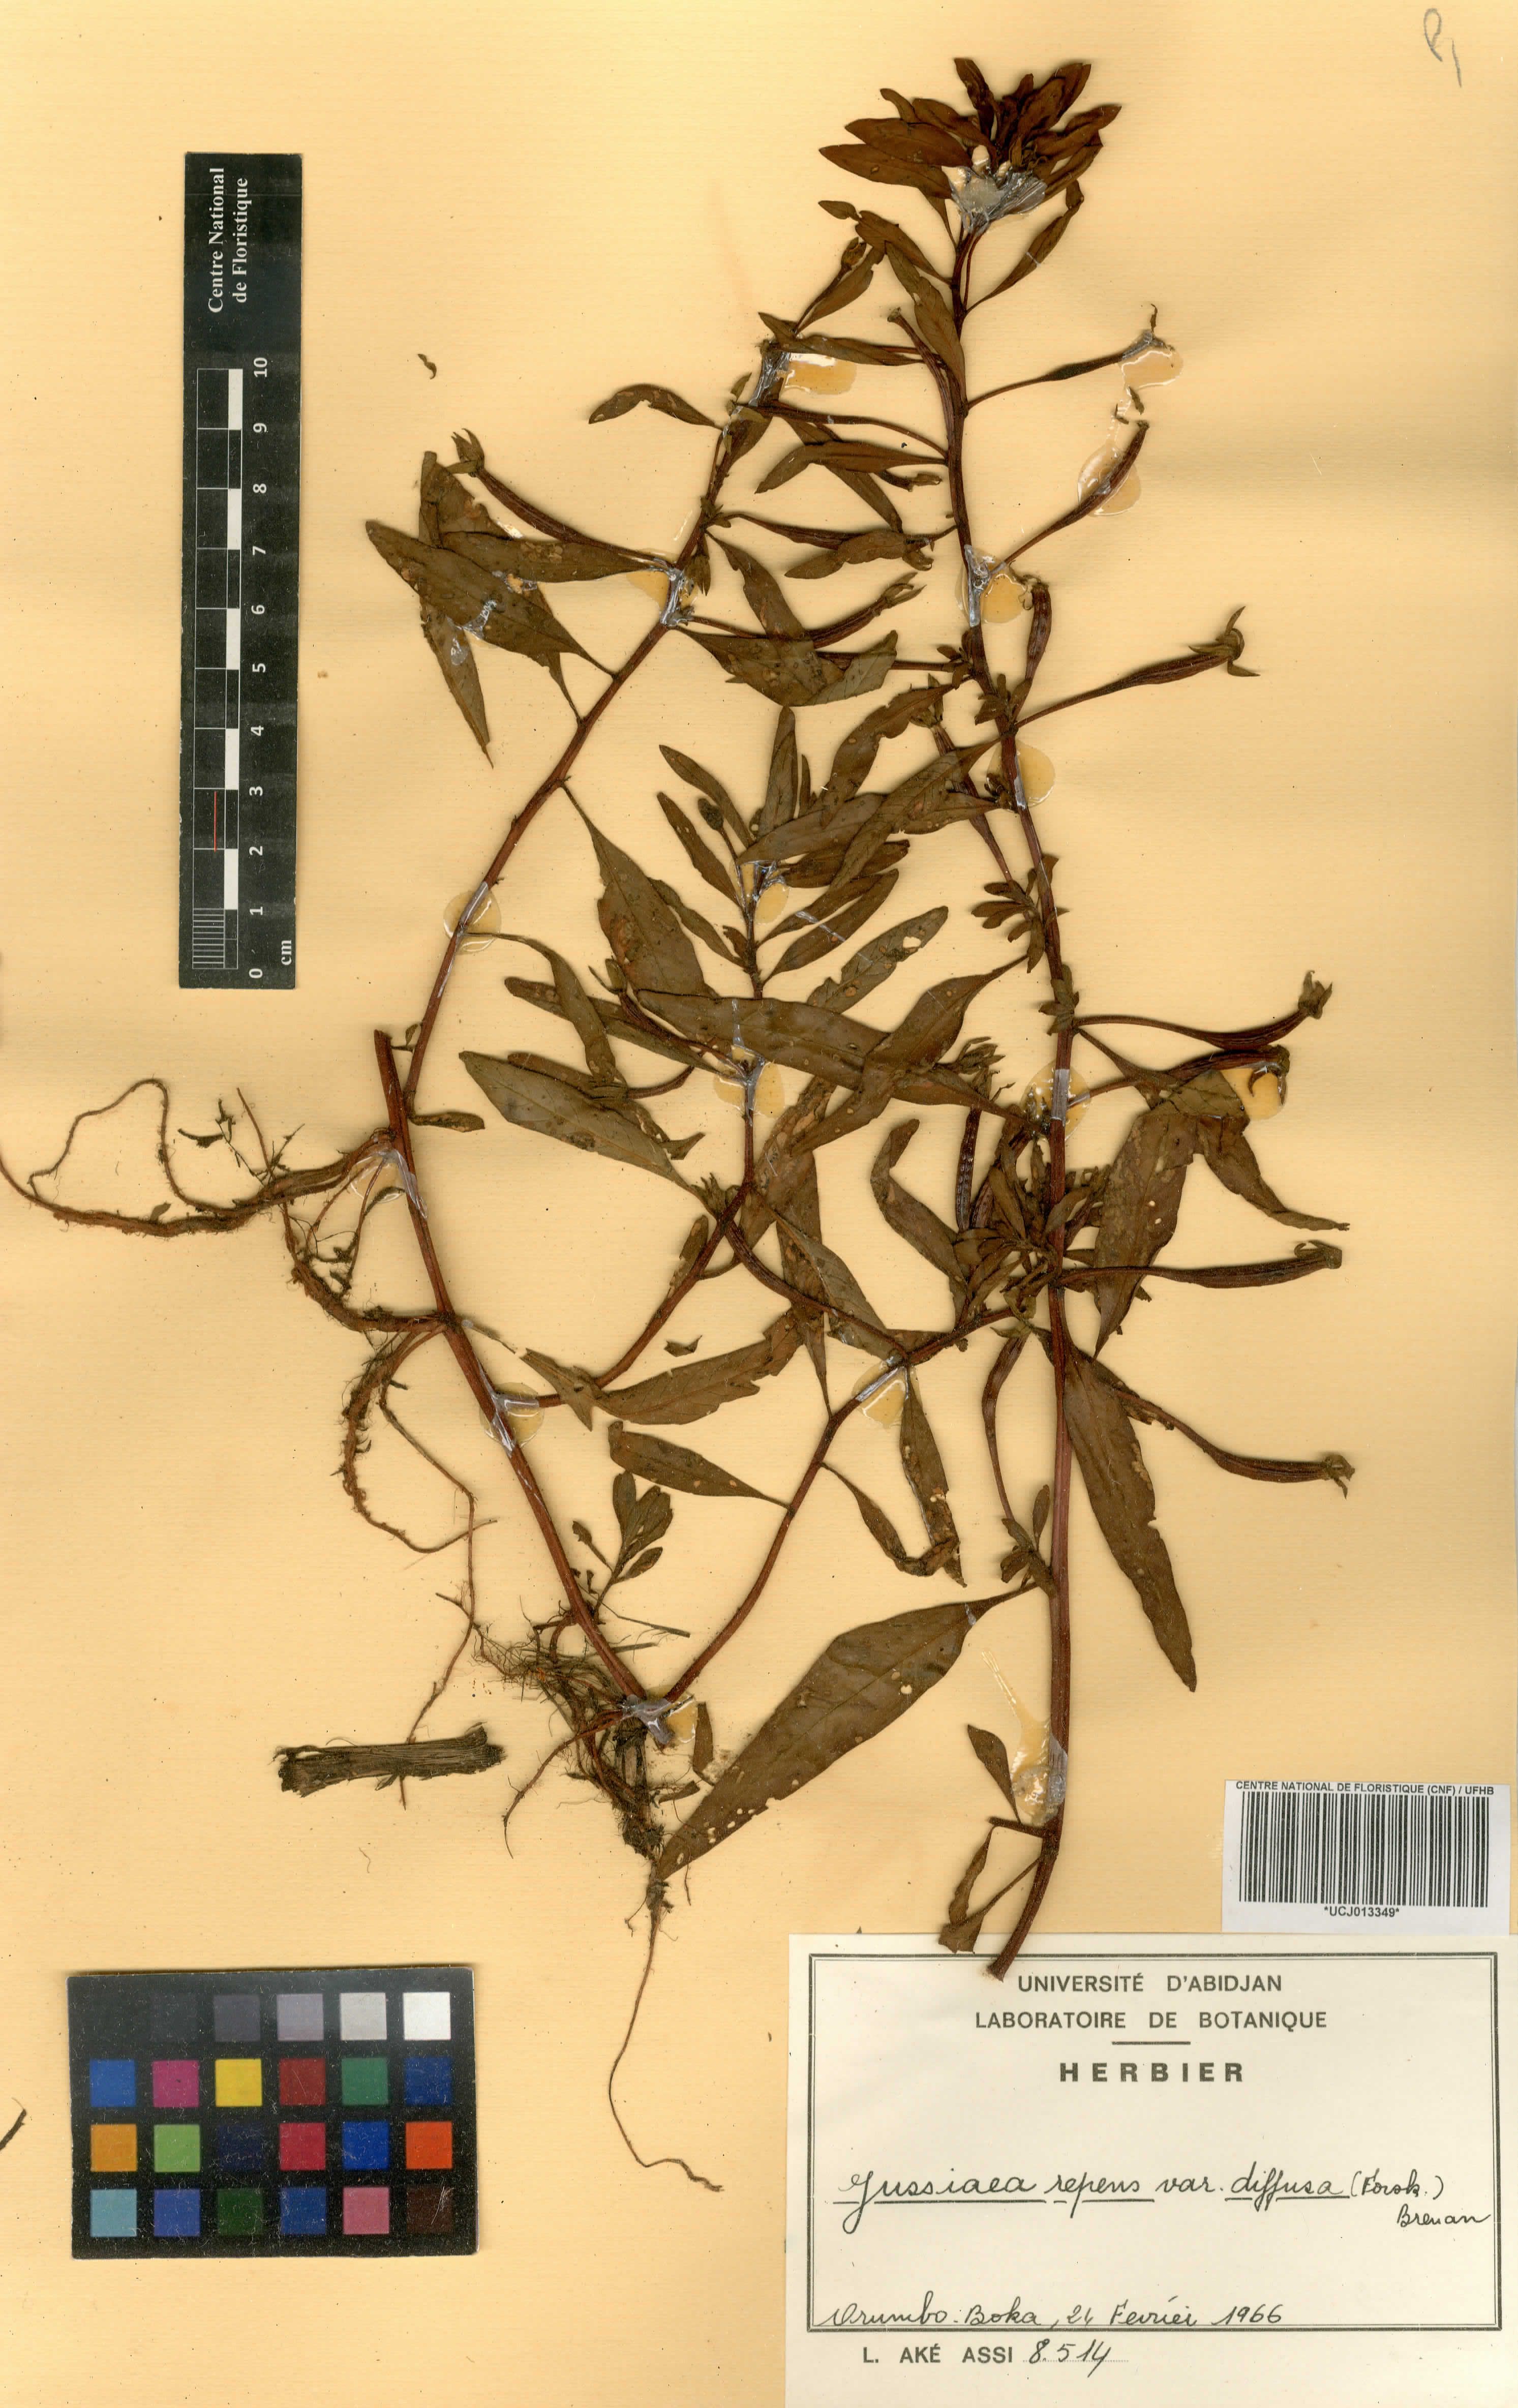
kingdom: Plantae
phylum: Tracheophyta
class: Magnoliopsida
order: Myrtales
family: Onagraceae
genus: Ludwigia
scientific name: Ludwigia adscendens
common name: Creeping water primrose
